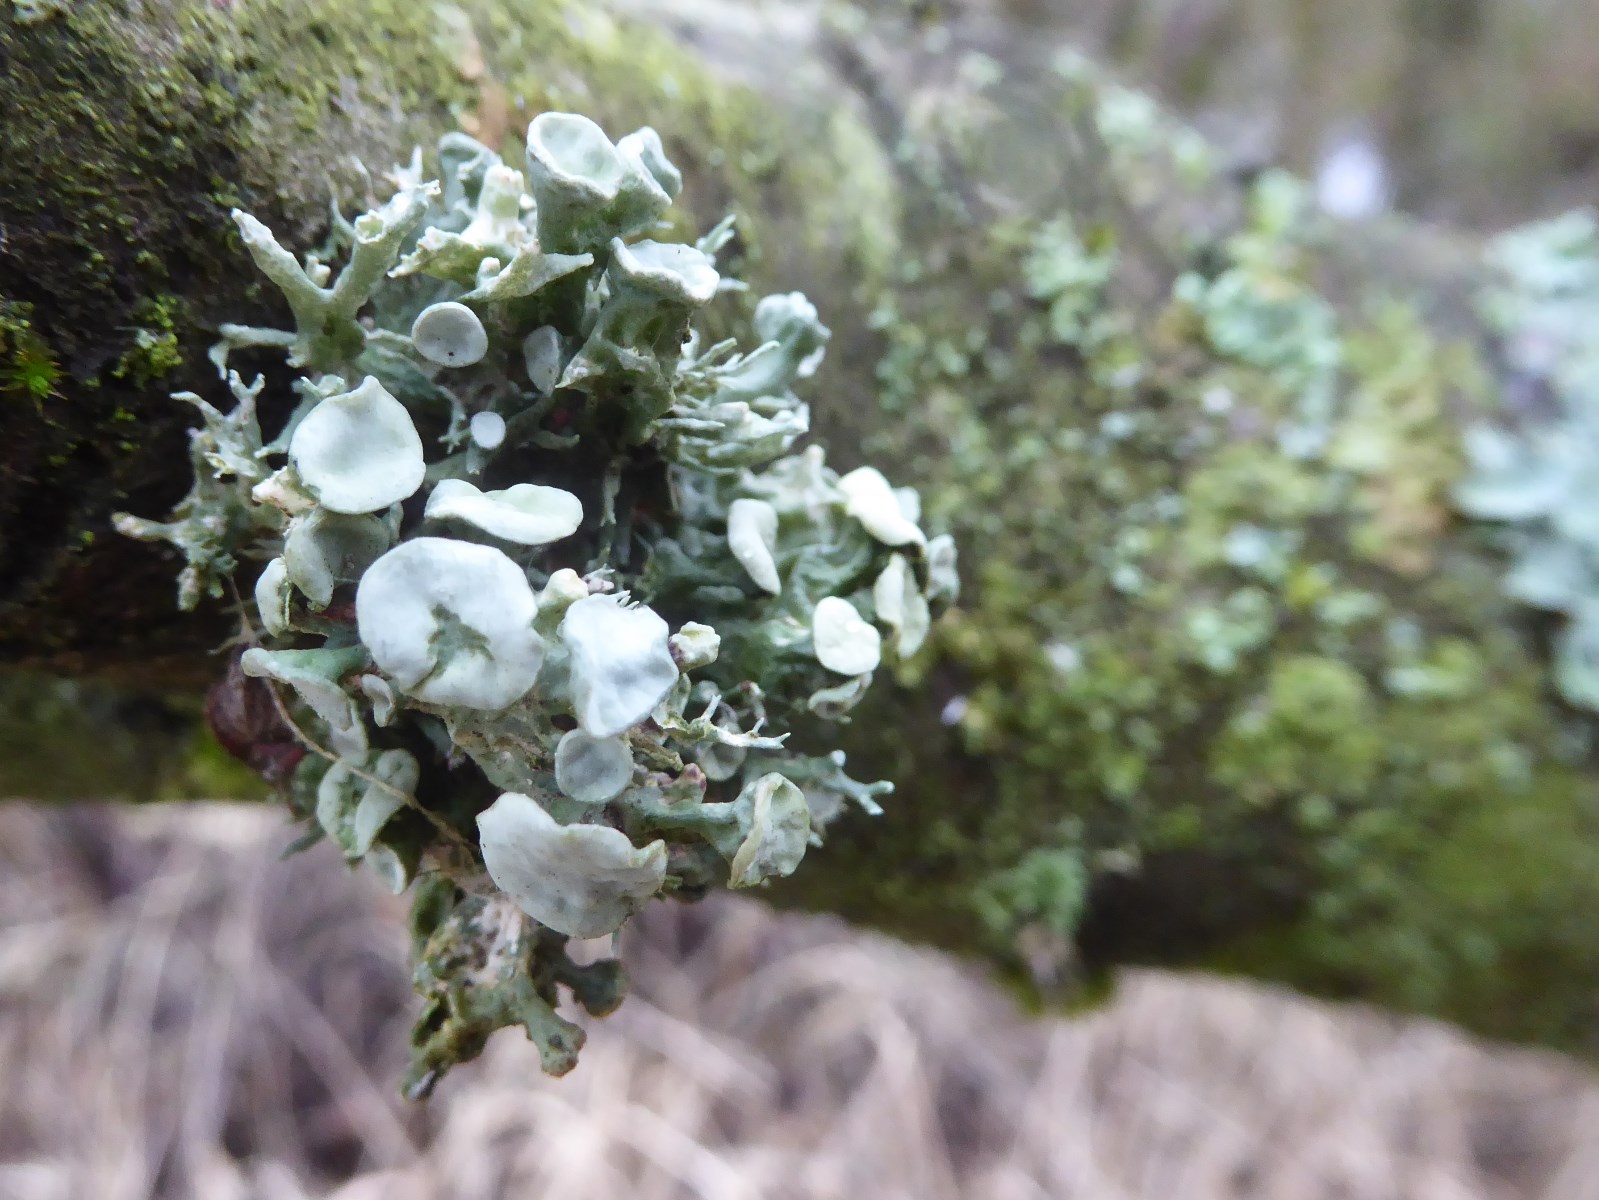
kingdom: Fungi
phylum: Ascomycota
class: Lecanoromycetes
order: Lecanorales
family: Ramalinaceae
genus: Ramalina
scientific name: Ramalina fastigiata
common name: tue-grenlav
